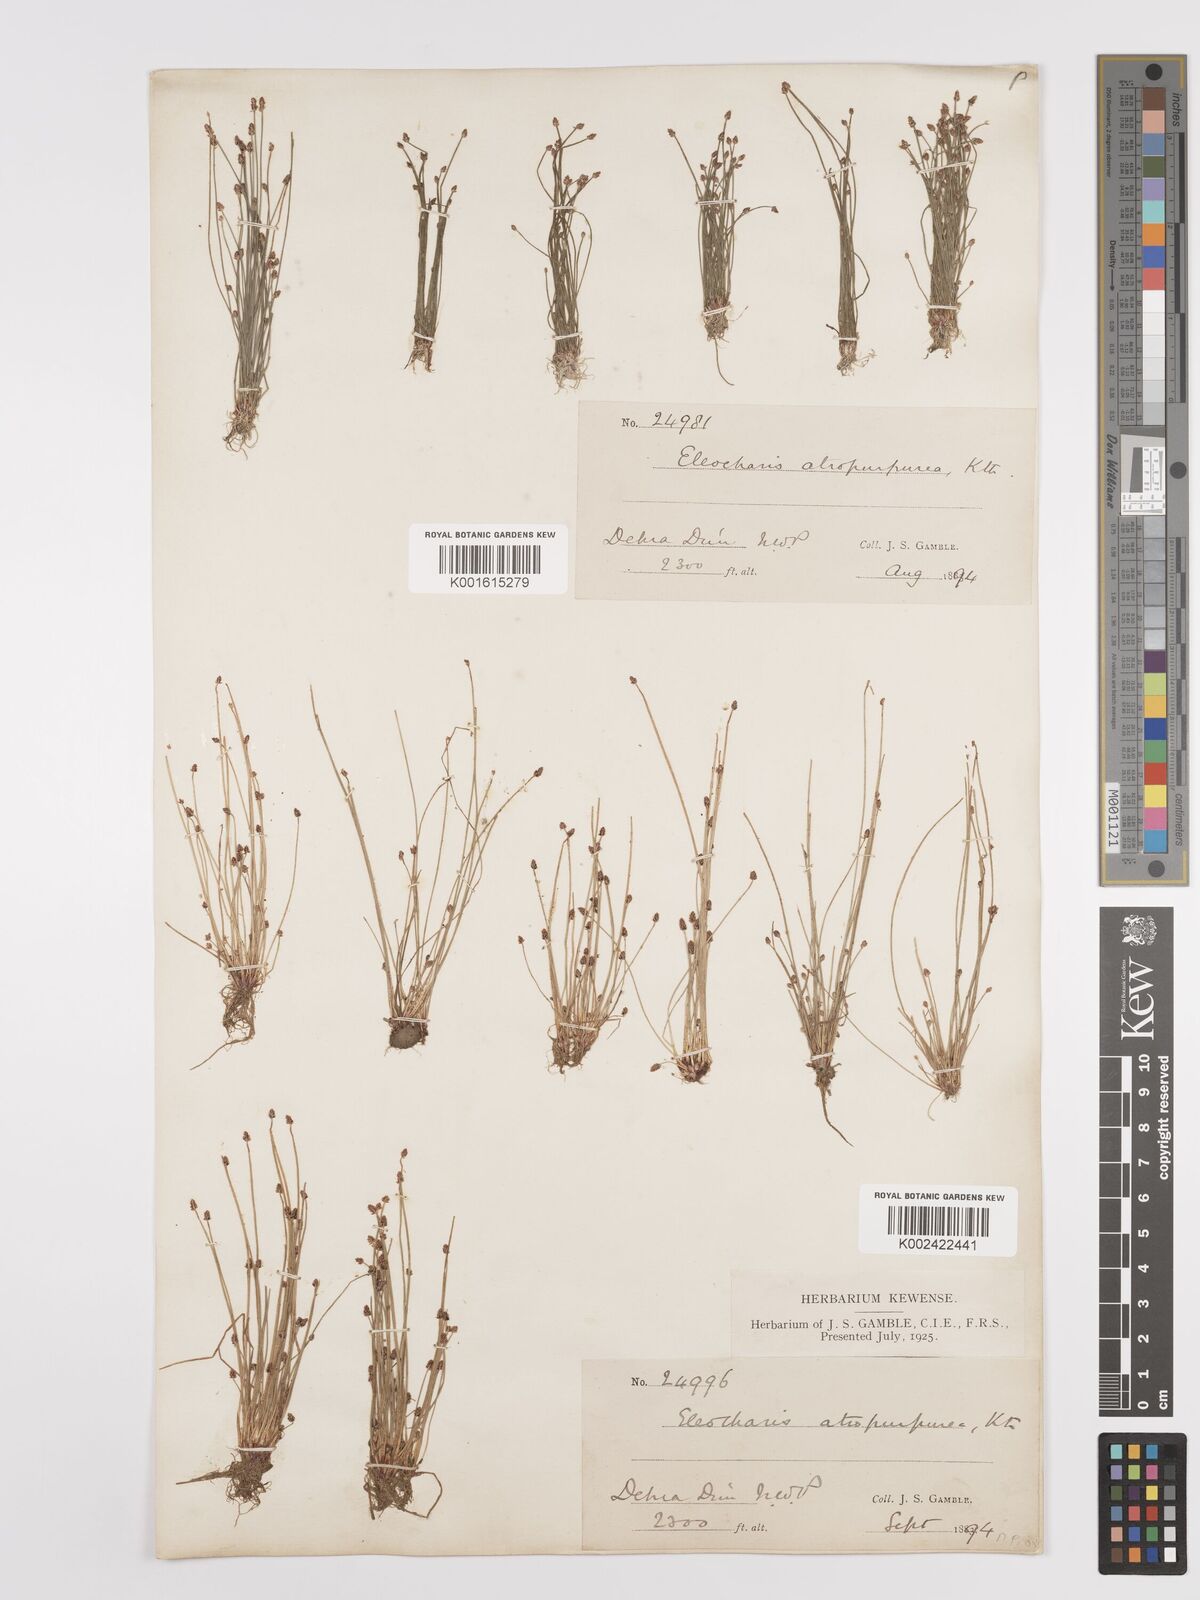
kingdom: Plantae
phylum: Tracheophyta
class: Liliopsida
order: Poales
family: Cyperaceae
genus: Eleocharis
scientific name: Eleocharis atropurpurea
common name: Purple spikerush
